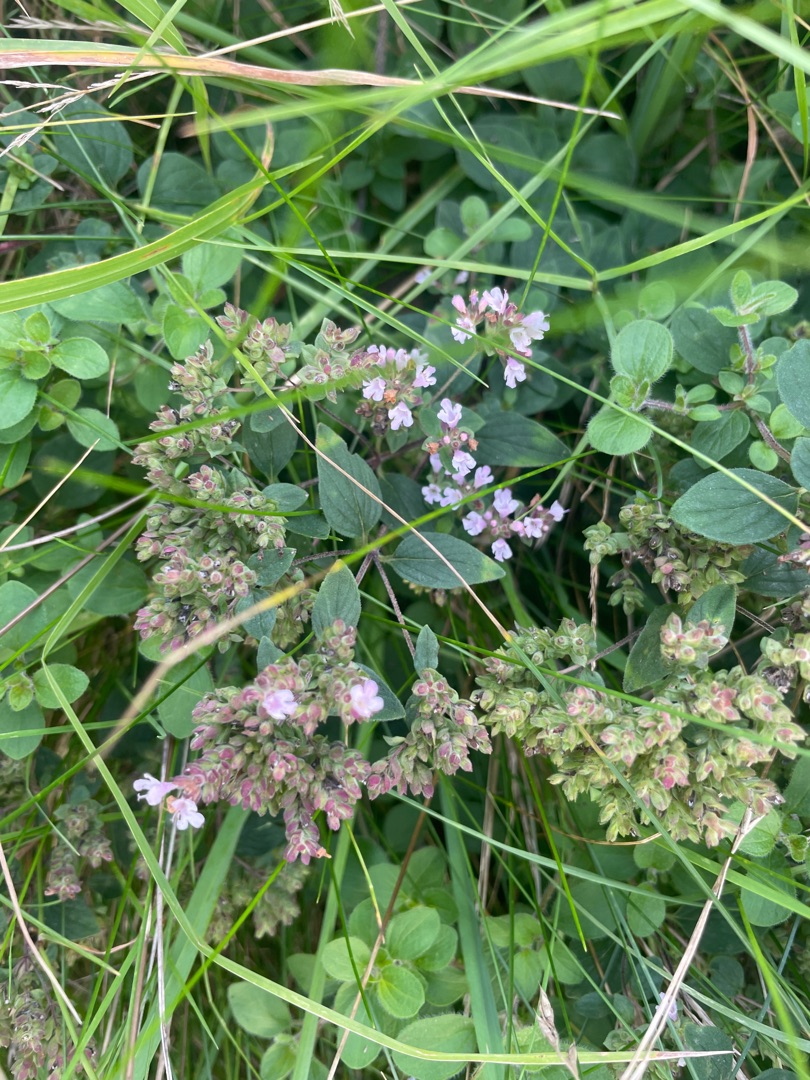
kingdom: Plantae
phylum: Tracheophyta
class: Magnoliopsida
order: Lamiales
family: Lamiaceae
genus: Origanum
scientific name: Origanum vulgare
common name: Merian
